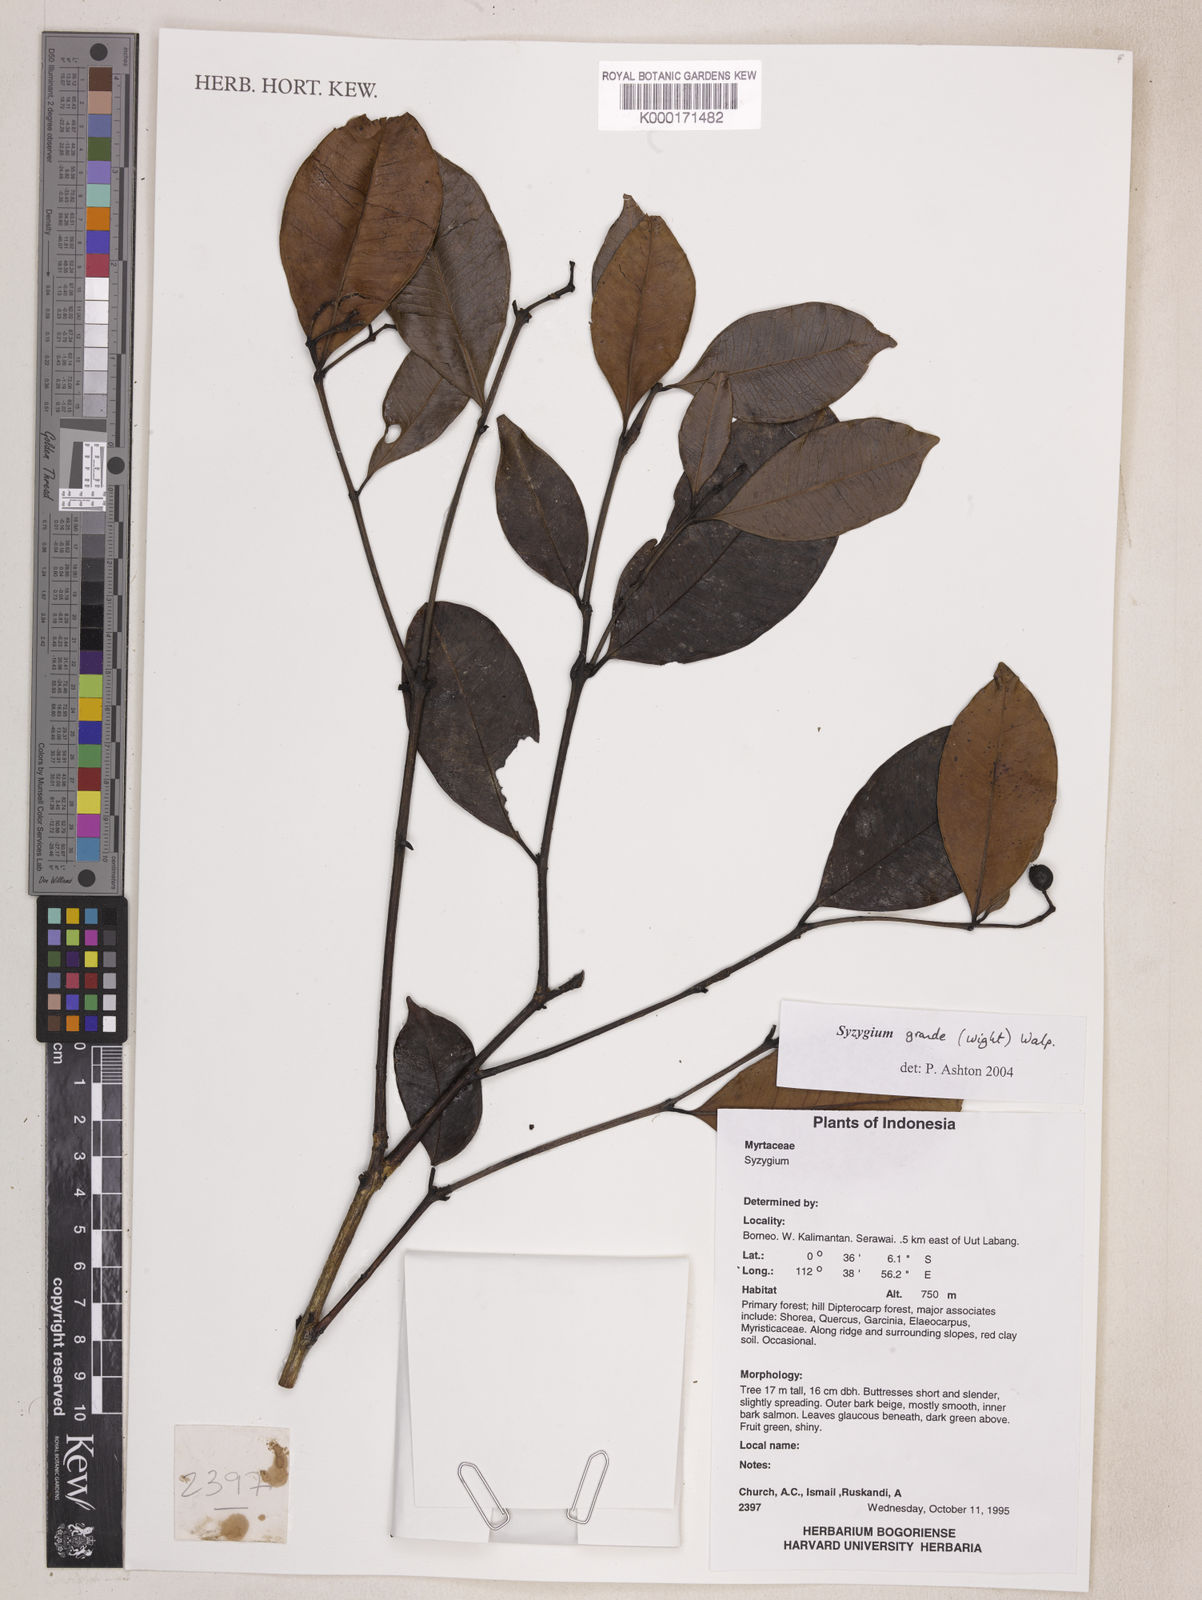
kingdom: Plantae
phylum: Tracheophyta
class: Magnoliopsida
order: Myrtales
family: Myrtaceae
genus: Syzygium
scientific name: Syzygium grande
